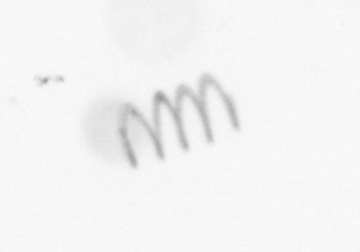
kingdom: Chromista
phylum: Ochrophyta
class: Bacillariophyceae
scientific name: Bacillariophyceae
